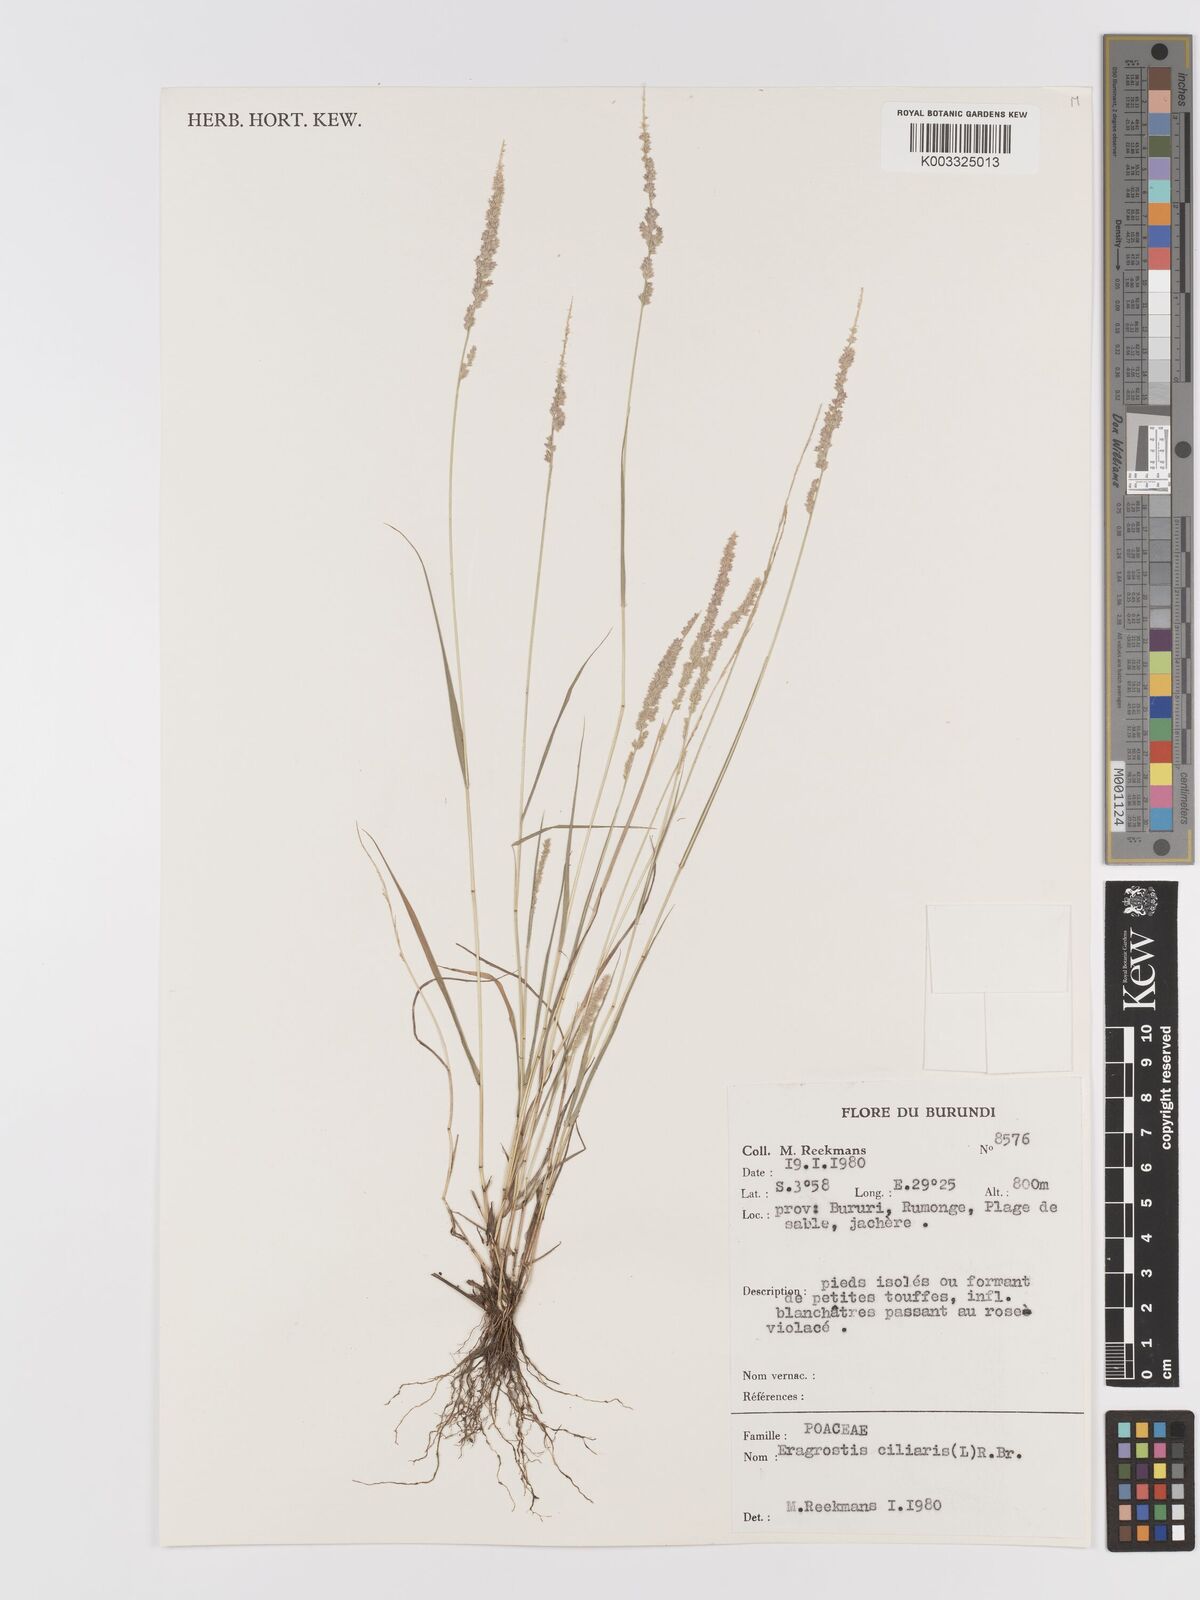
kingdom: Plantae
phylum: Tracheophyta
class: Liliopsida
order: Poales
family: Poaceae
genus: Eragrostis
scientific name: Eragrostis ciliaris
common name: Gophertail lovegrass
